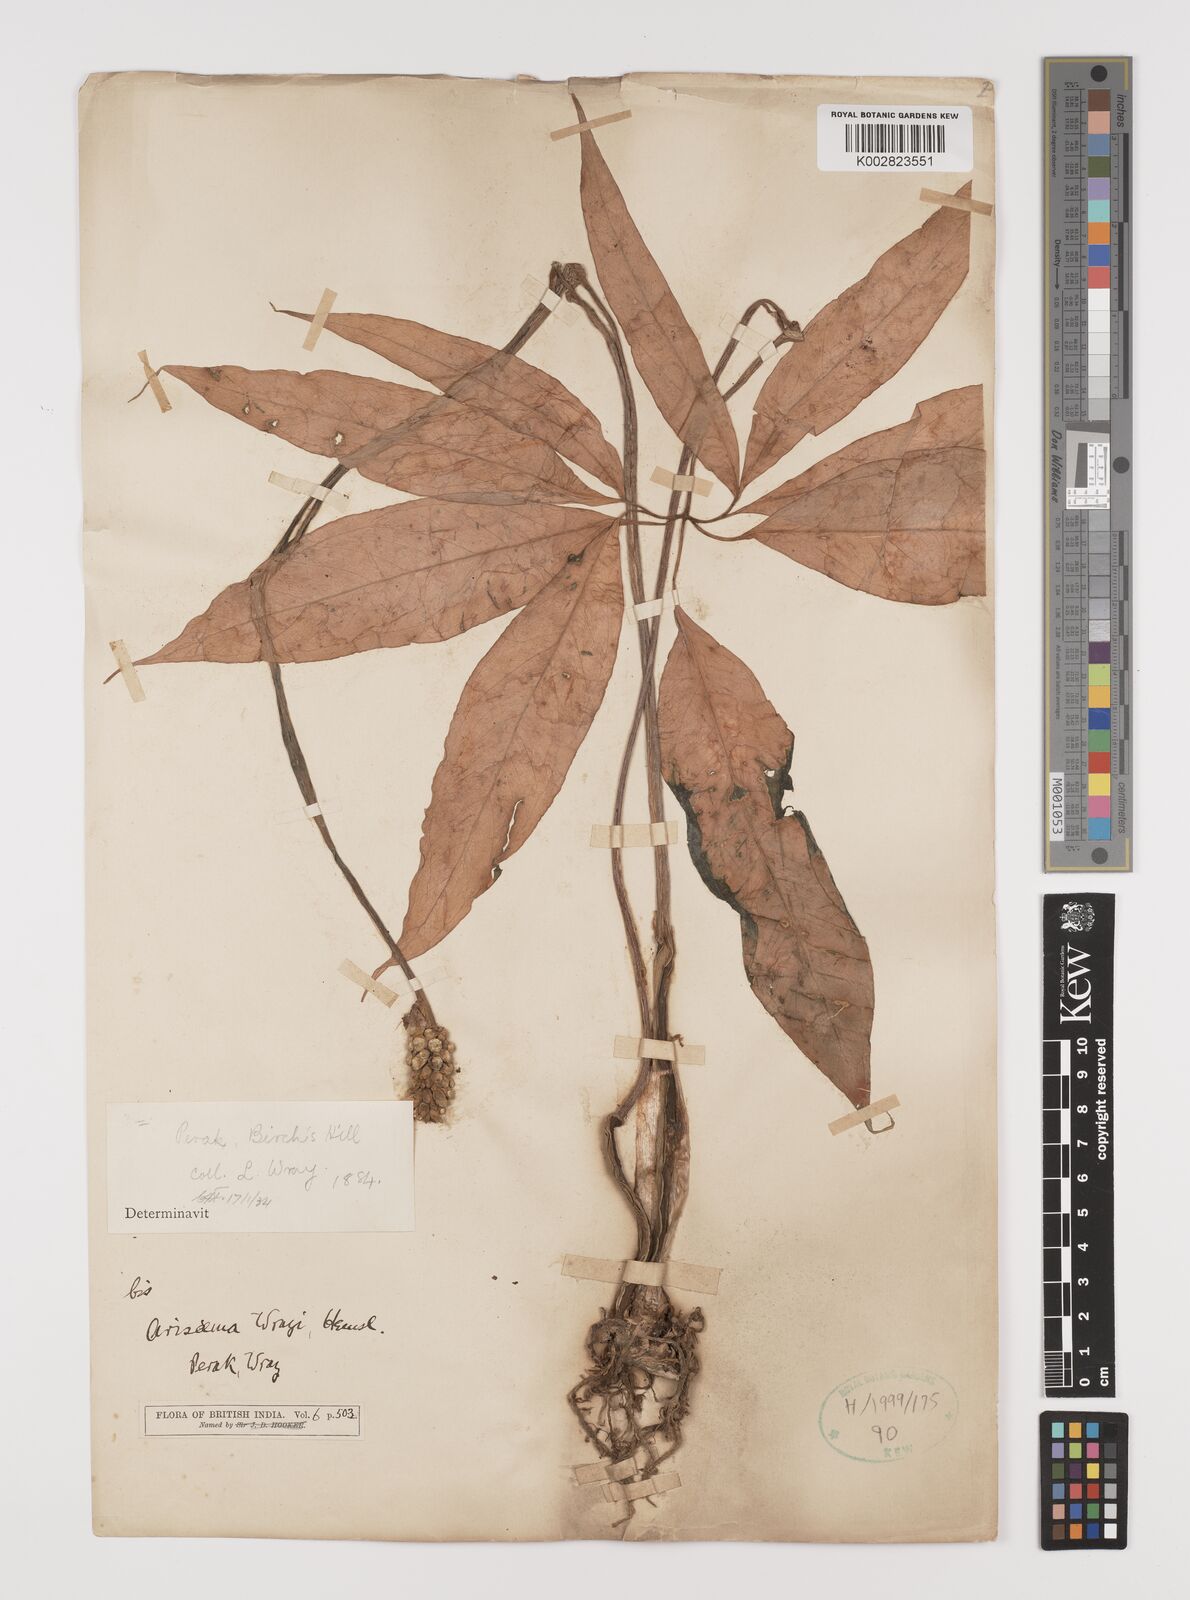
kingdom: Plantae
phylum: Tracheophyta
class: Liliopsida
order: Alismatales
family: Araceae
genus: Arisaema
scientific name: Arisaema wrayi
